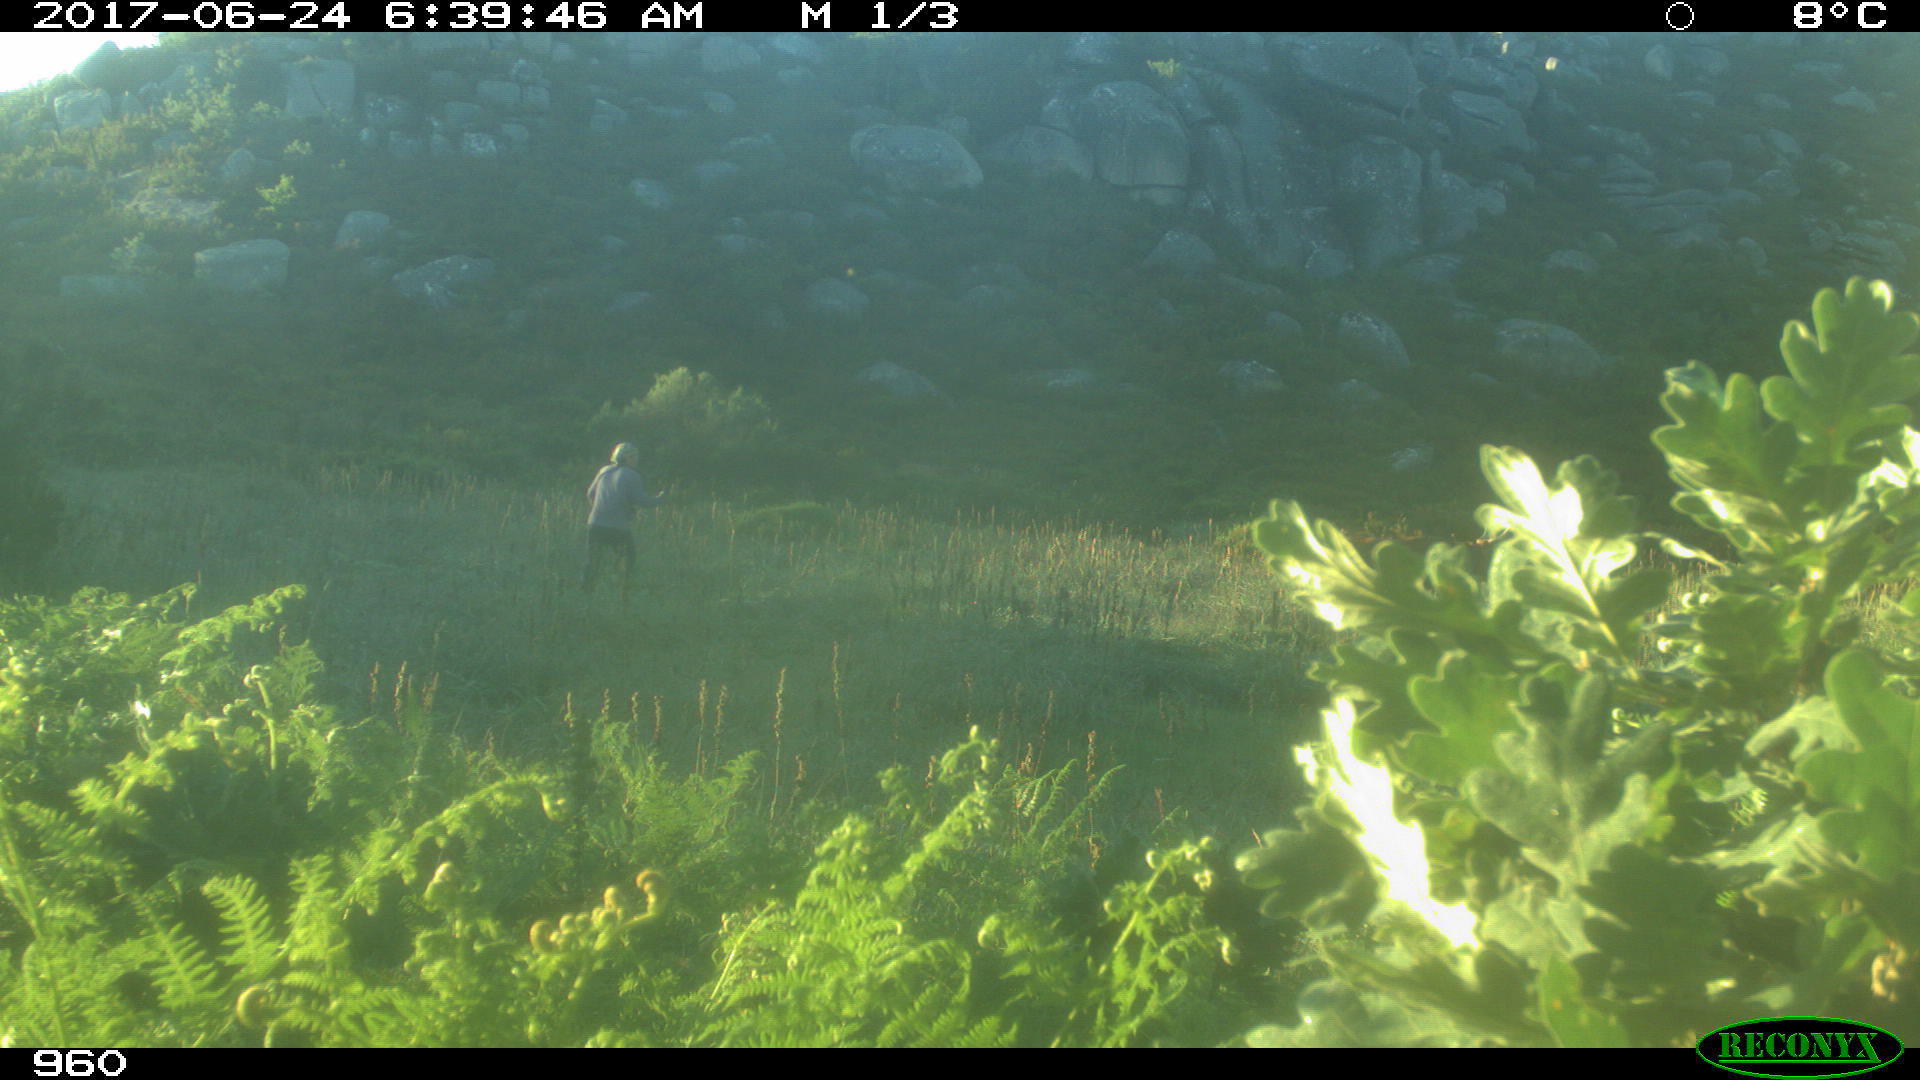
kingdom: Animalia
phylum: Chordata
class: Mammalia
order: Artiodactyla
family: Bovidae
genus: Bos
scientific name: Bos taurus
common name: Domesticated cattle
